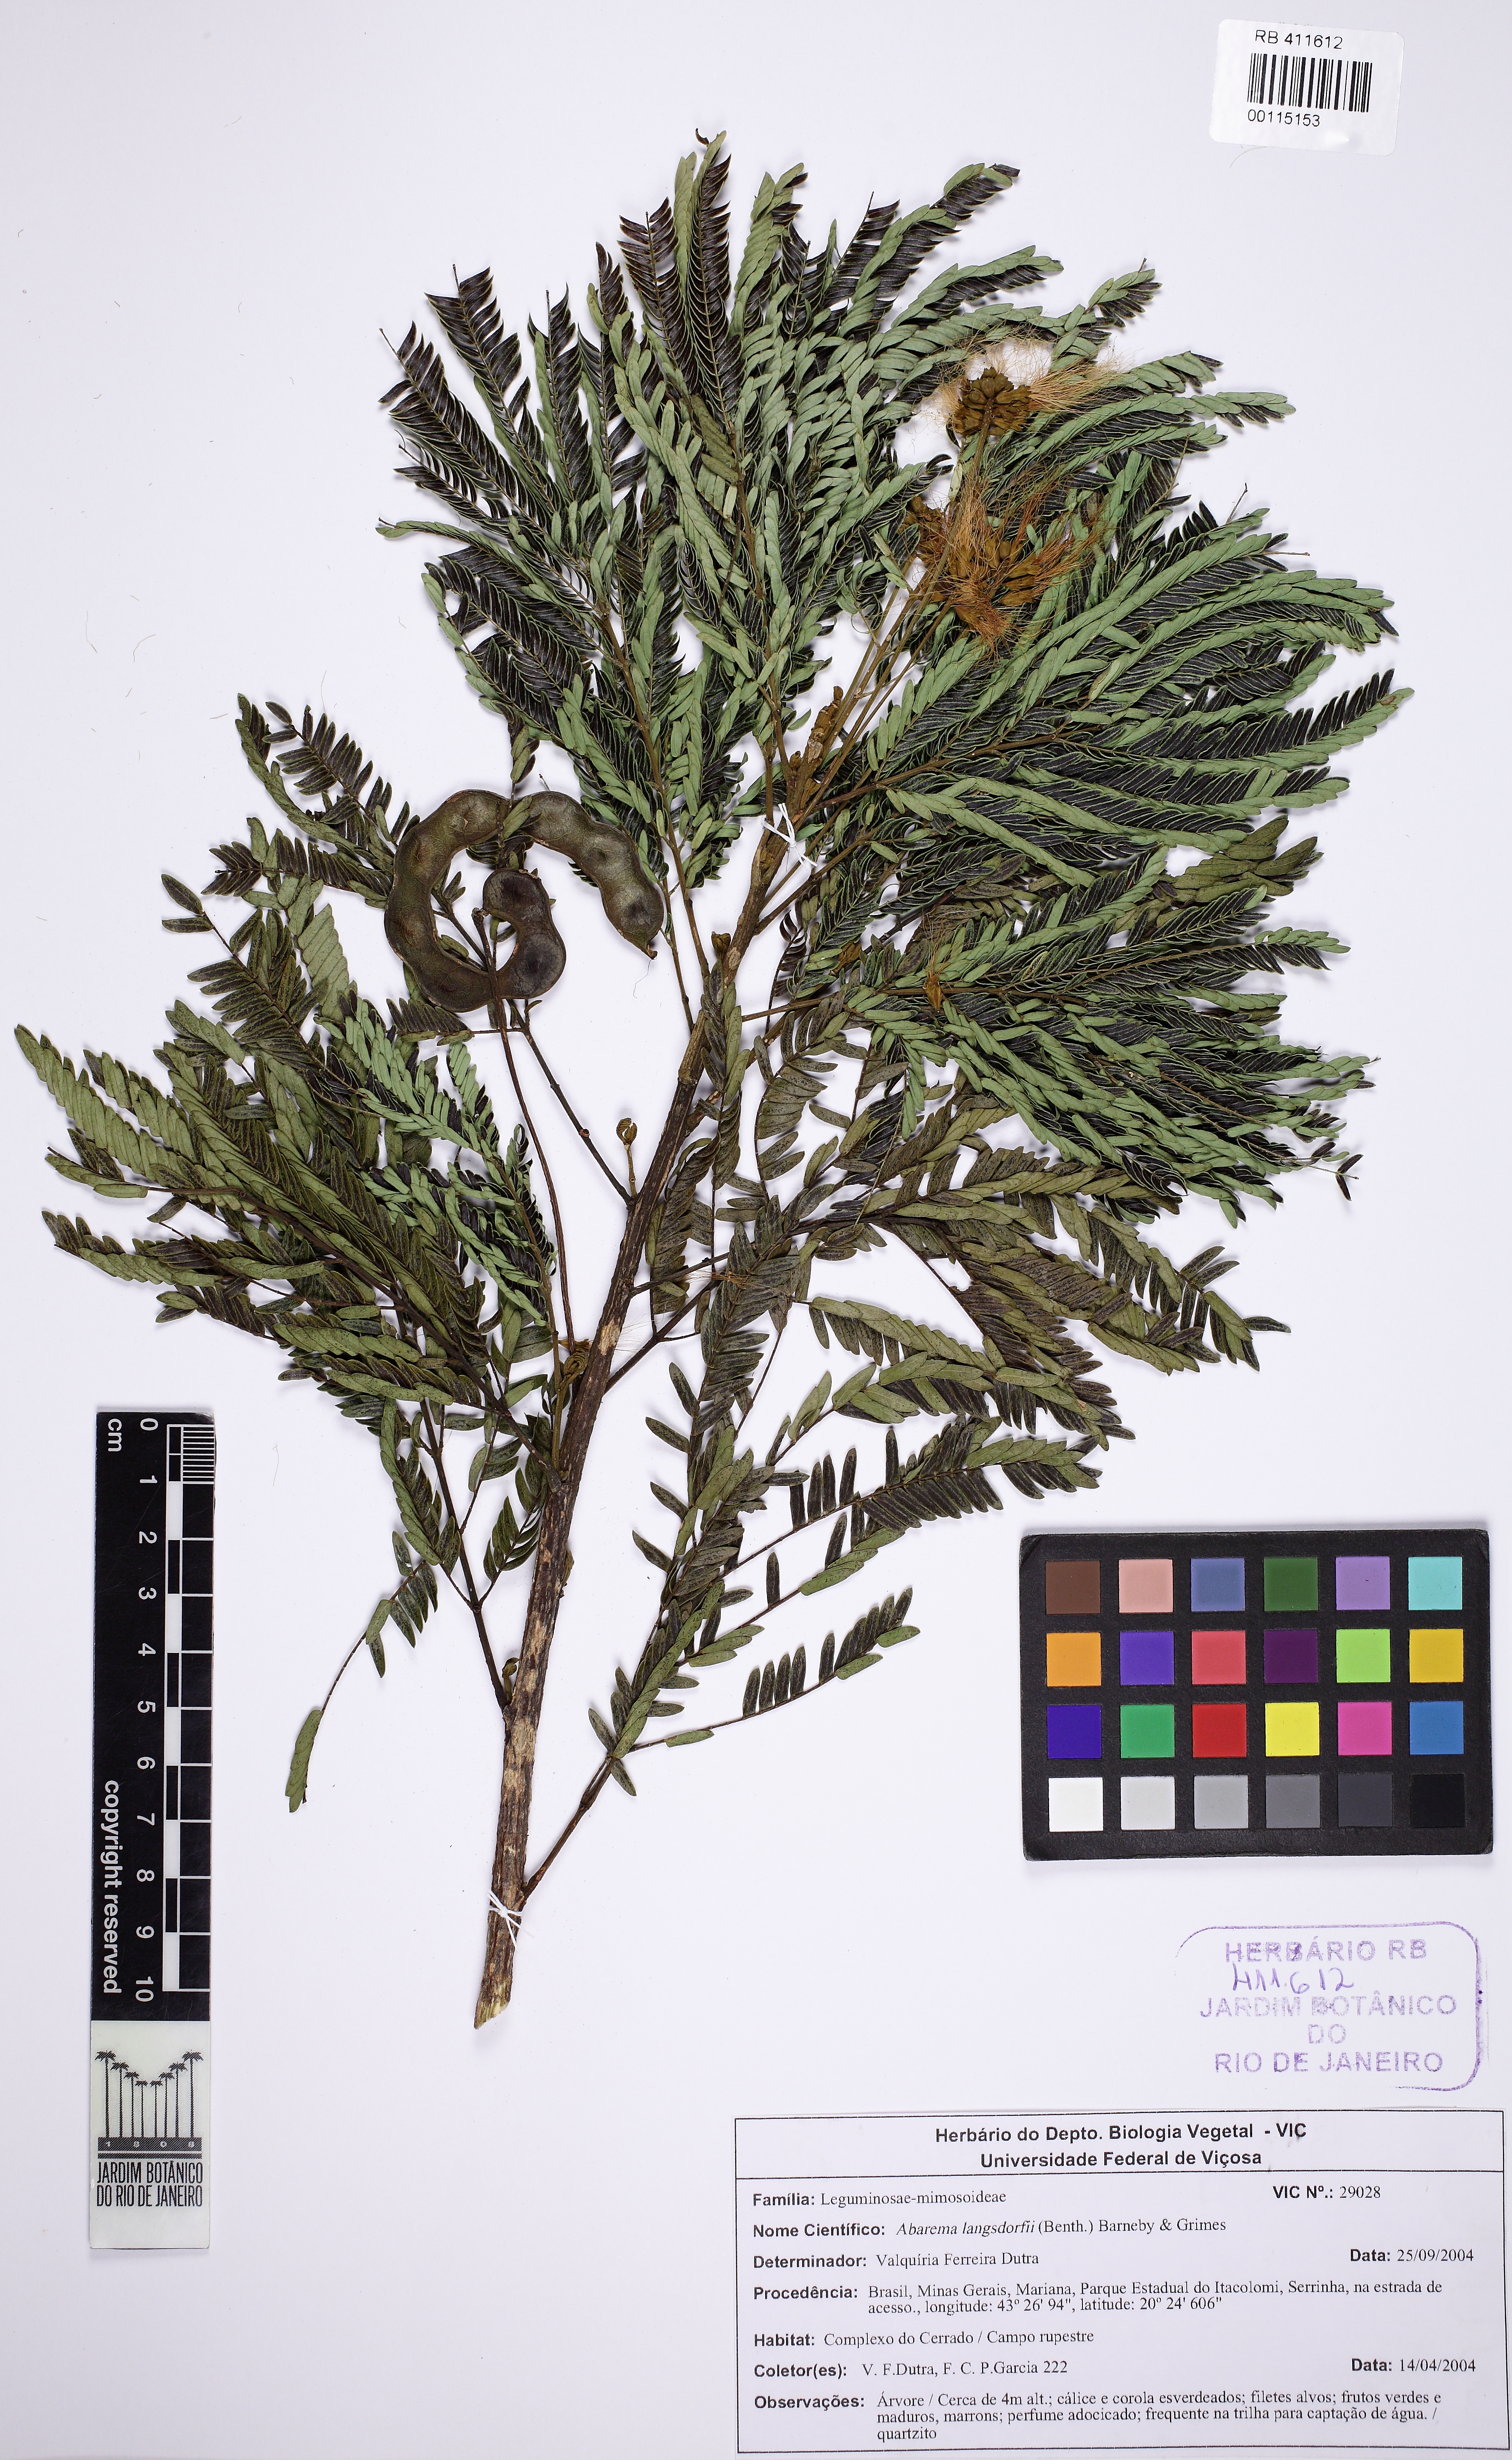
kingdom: Plantae
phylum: Tracheophyta
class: Magnoliopsida
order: Fabales
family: Fabaceae
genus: Jupunba
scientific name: Jupunba langsdorffii
